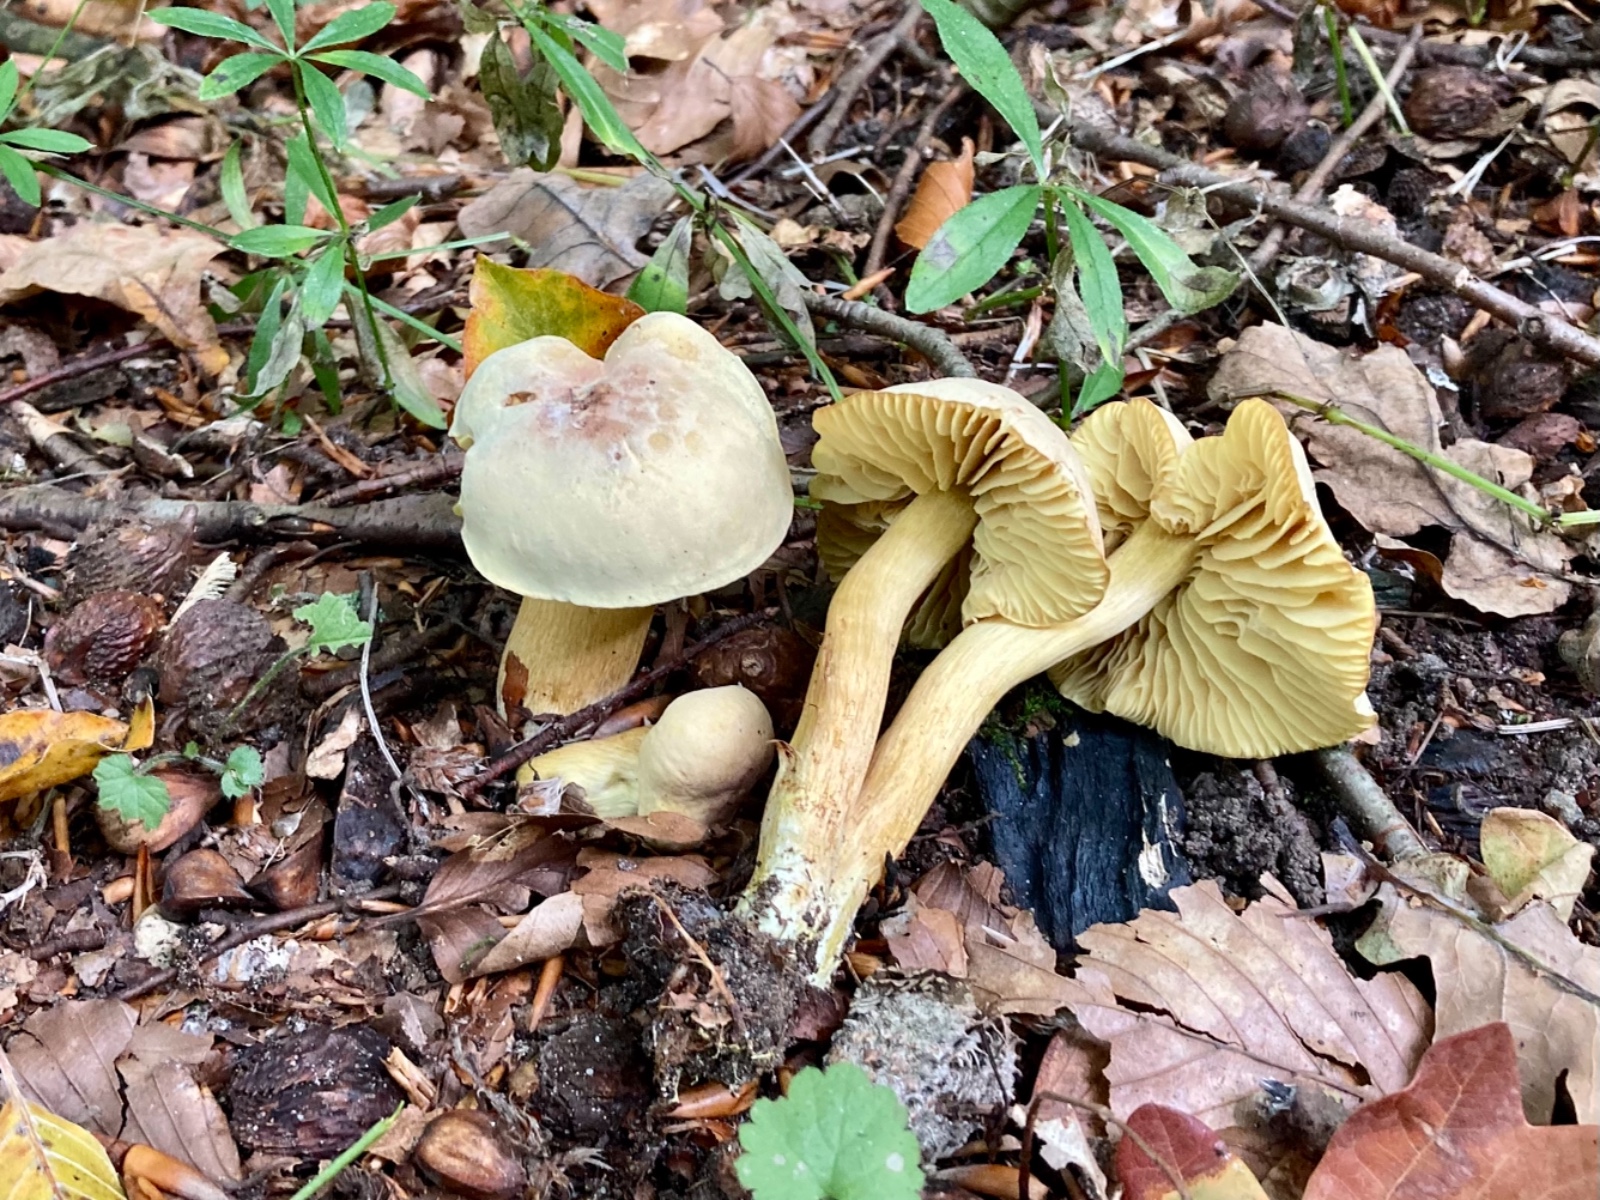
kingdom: Fungi
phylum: Basidiomycota
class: Agaricomycetes
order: Agaricales
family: Tricholomataceae
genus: Tricholoma
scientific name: Tricholoma sulphureum
